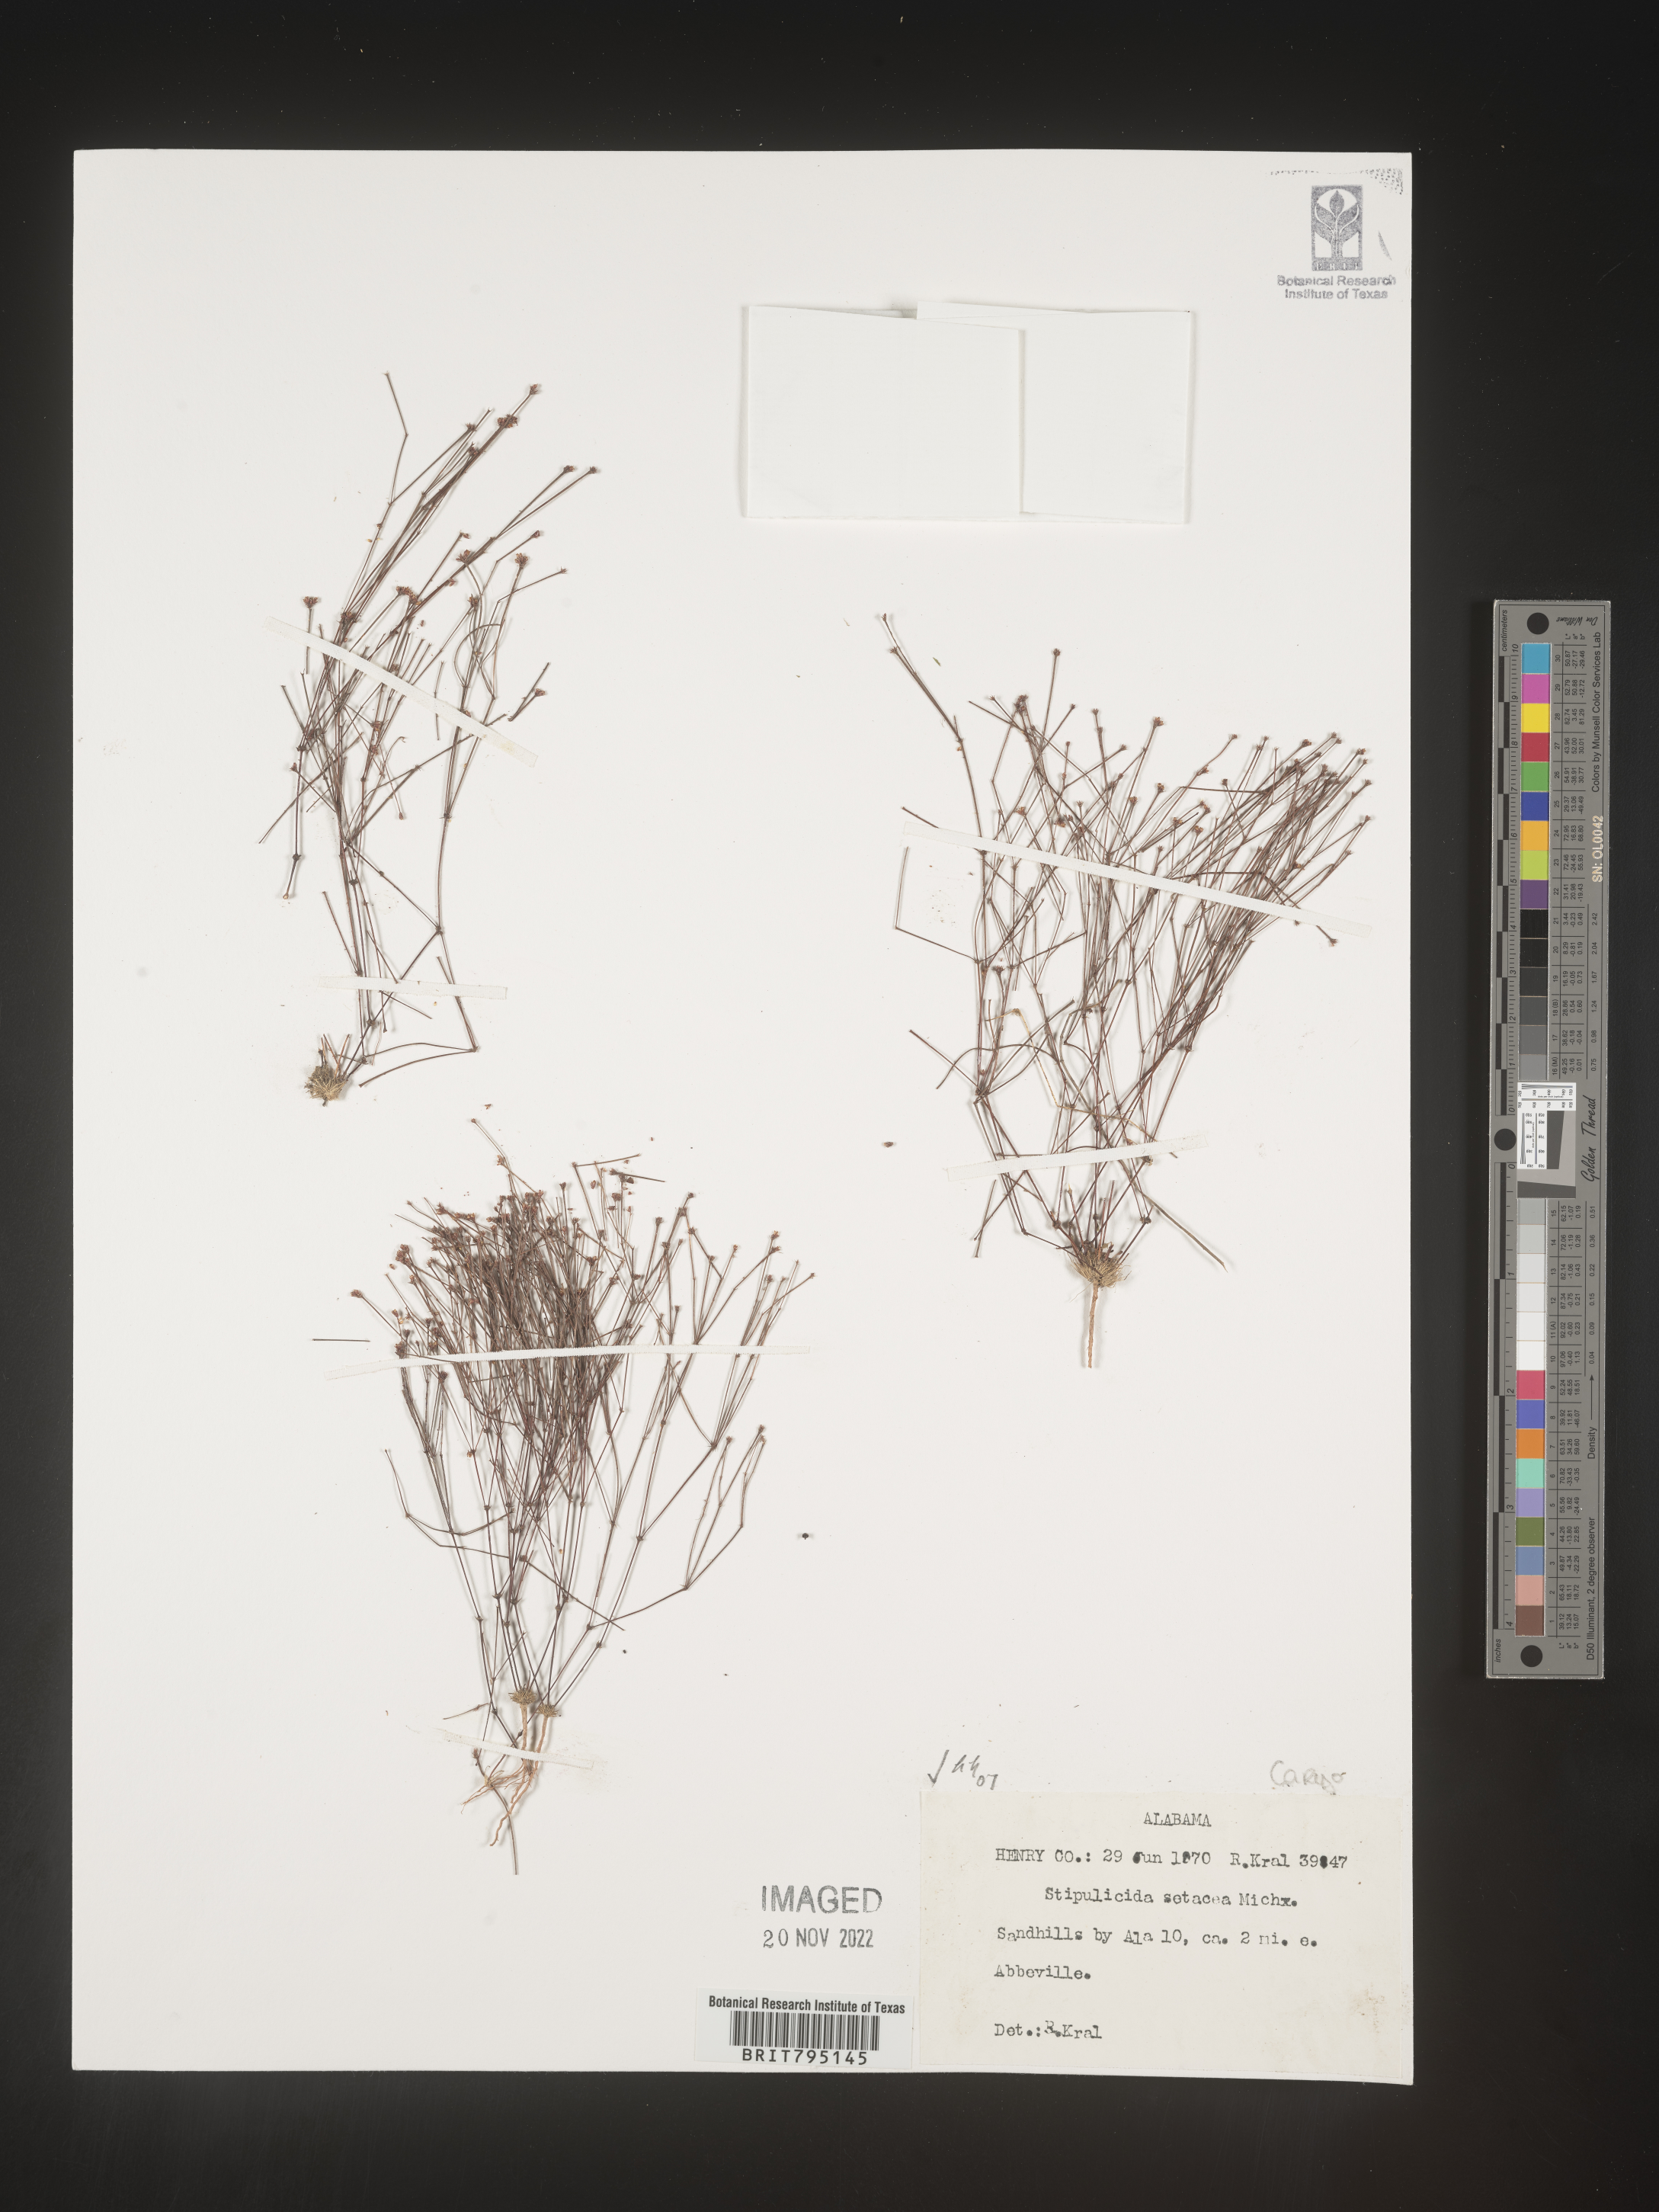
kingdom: Plantae
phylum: Tracheophyta
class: Magnoliopsida
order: Caryophyllales
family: Caryophyllaceae
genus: Stipulicida
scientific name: Stipulicida
